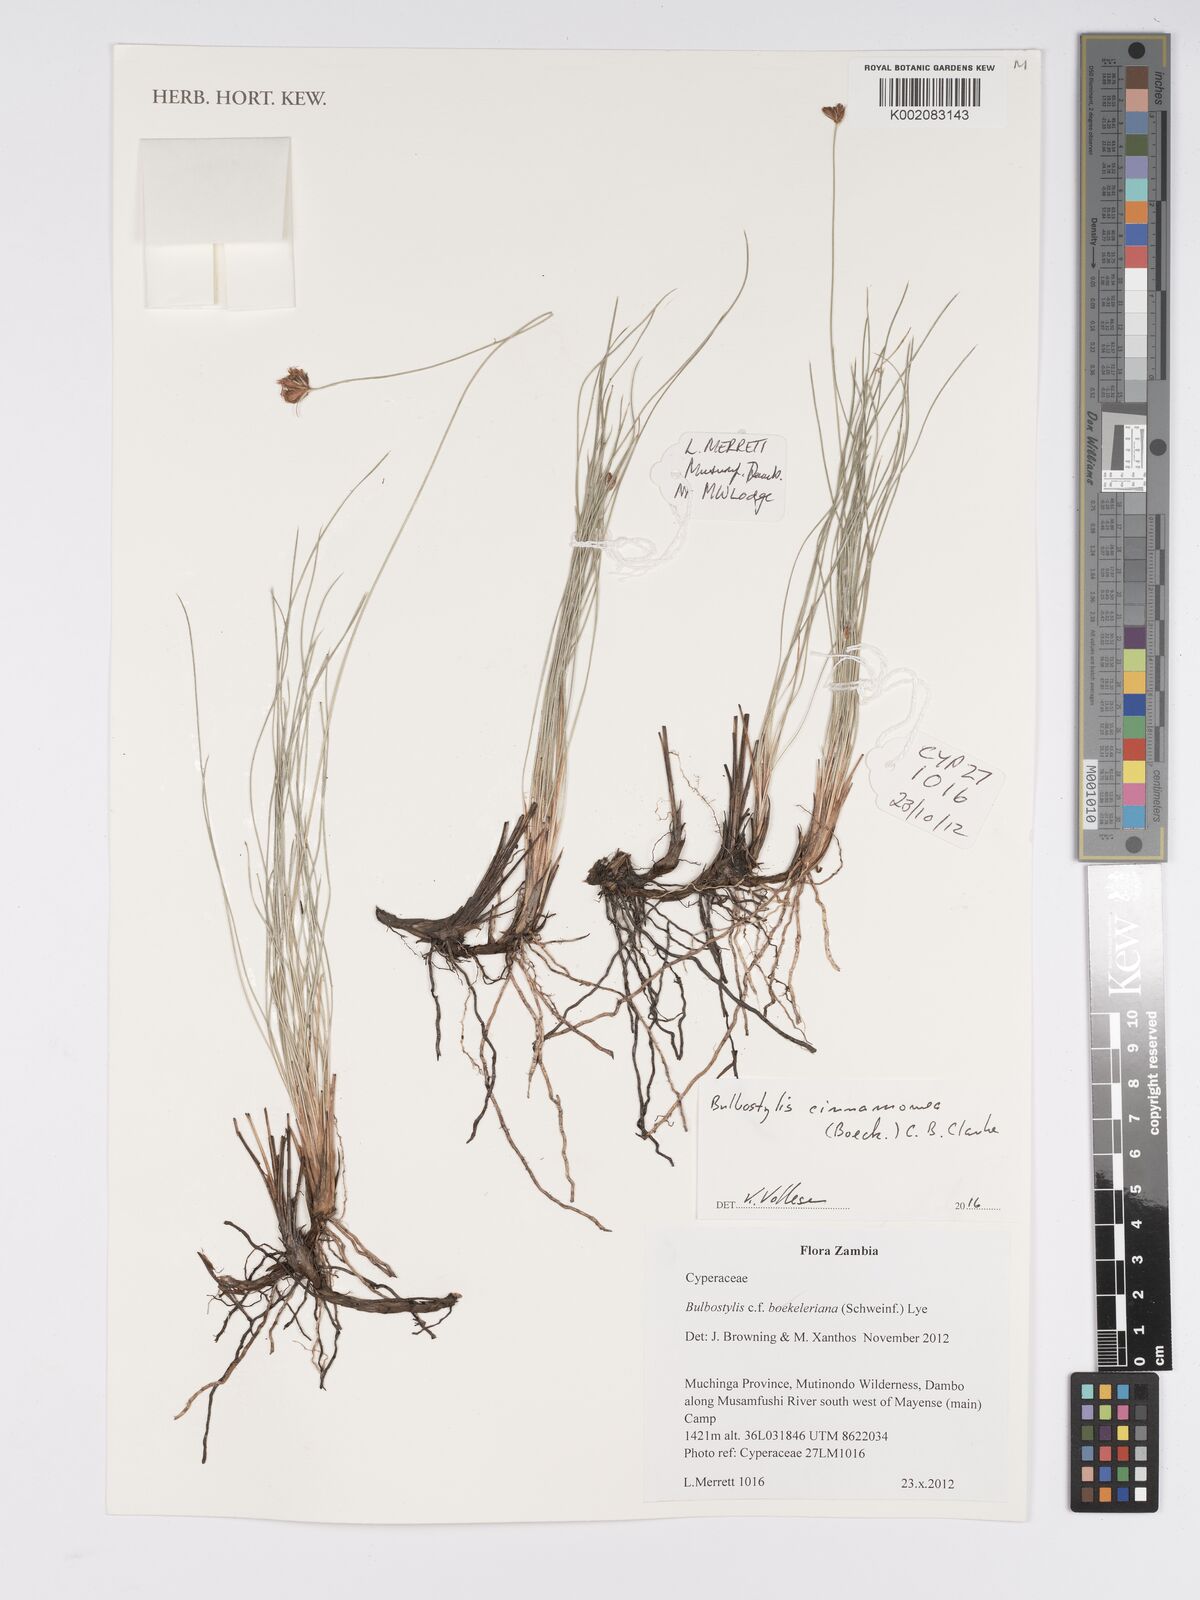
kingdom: Plantae
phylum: Tracheophyta
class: Liliopsida
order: Poales
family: Cyperaceae
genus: Bulbostylis
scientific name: Bulbostylis schoenoides
